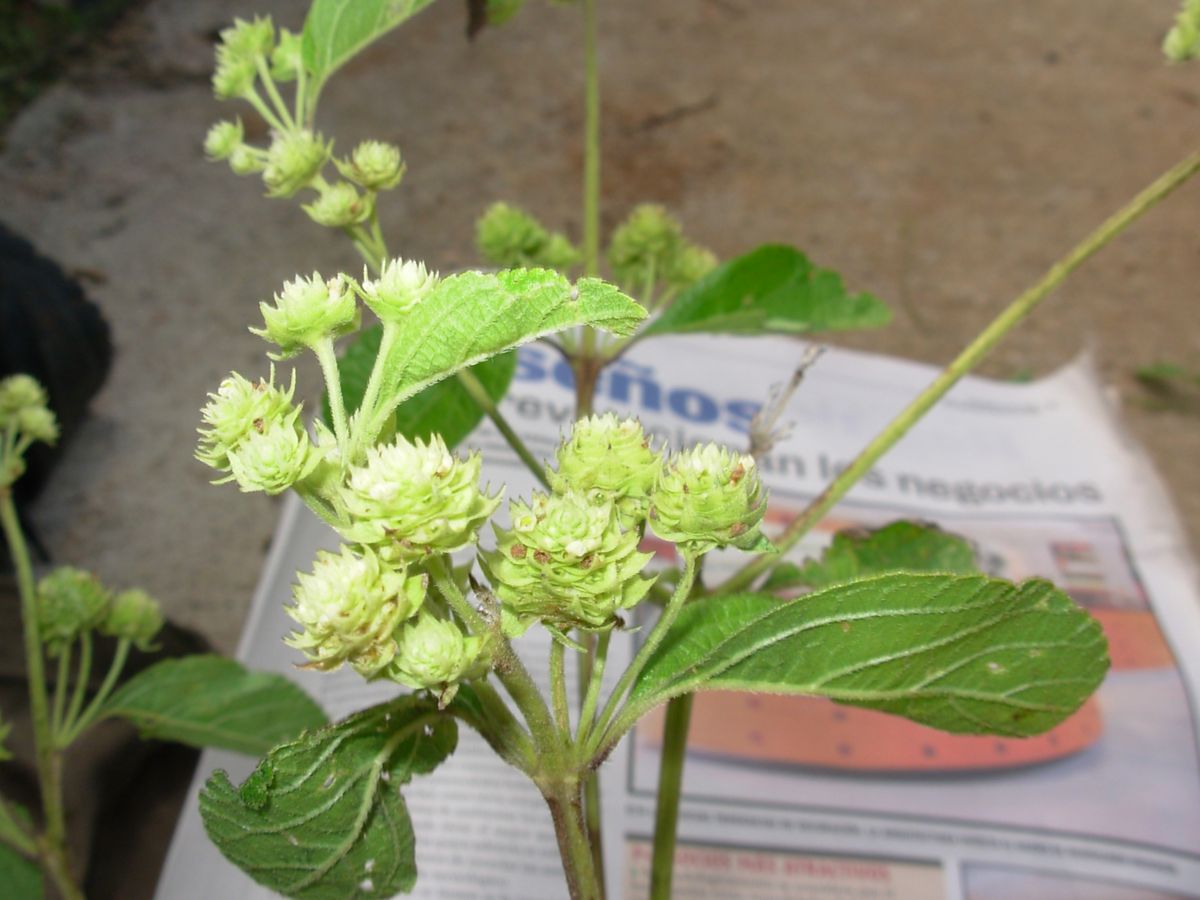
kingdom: Plantae
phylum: Tracheophyta
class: Magnoliopsida
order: Lamiales
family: Verbenaceae
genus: Lippia
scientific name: Lippia cardiostegia
